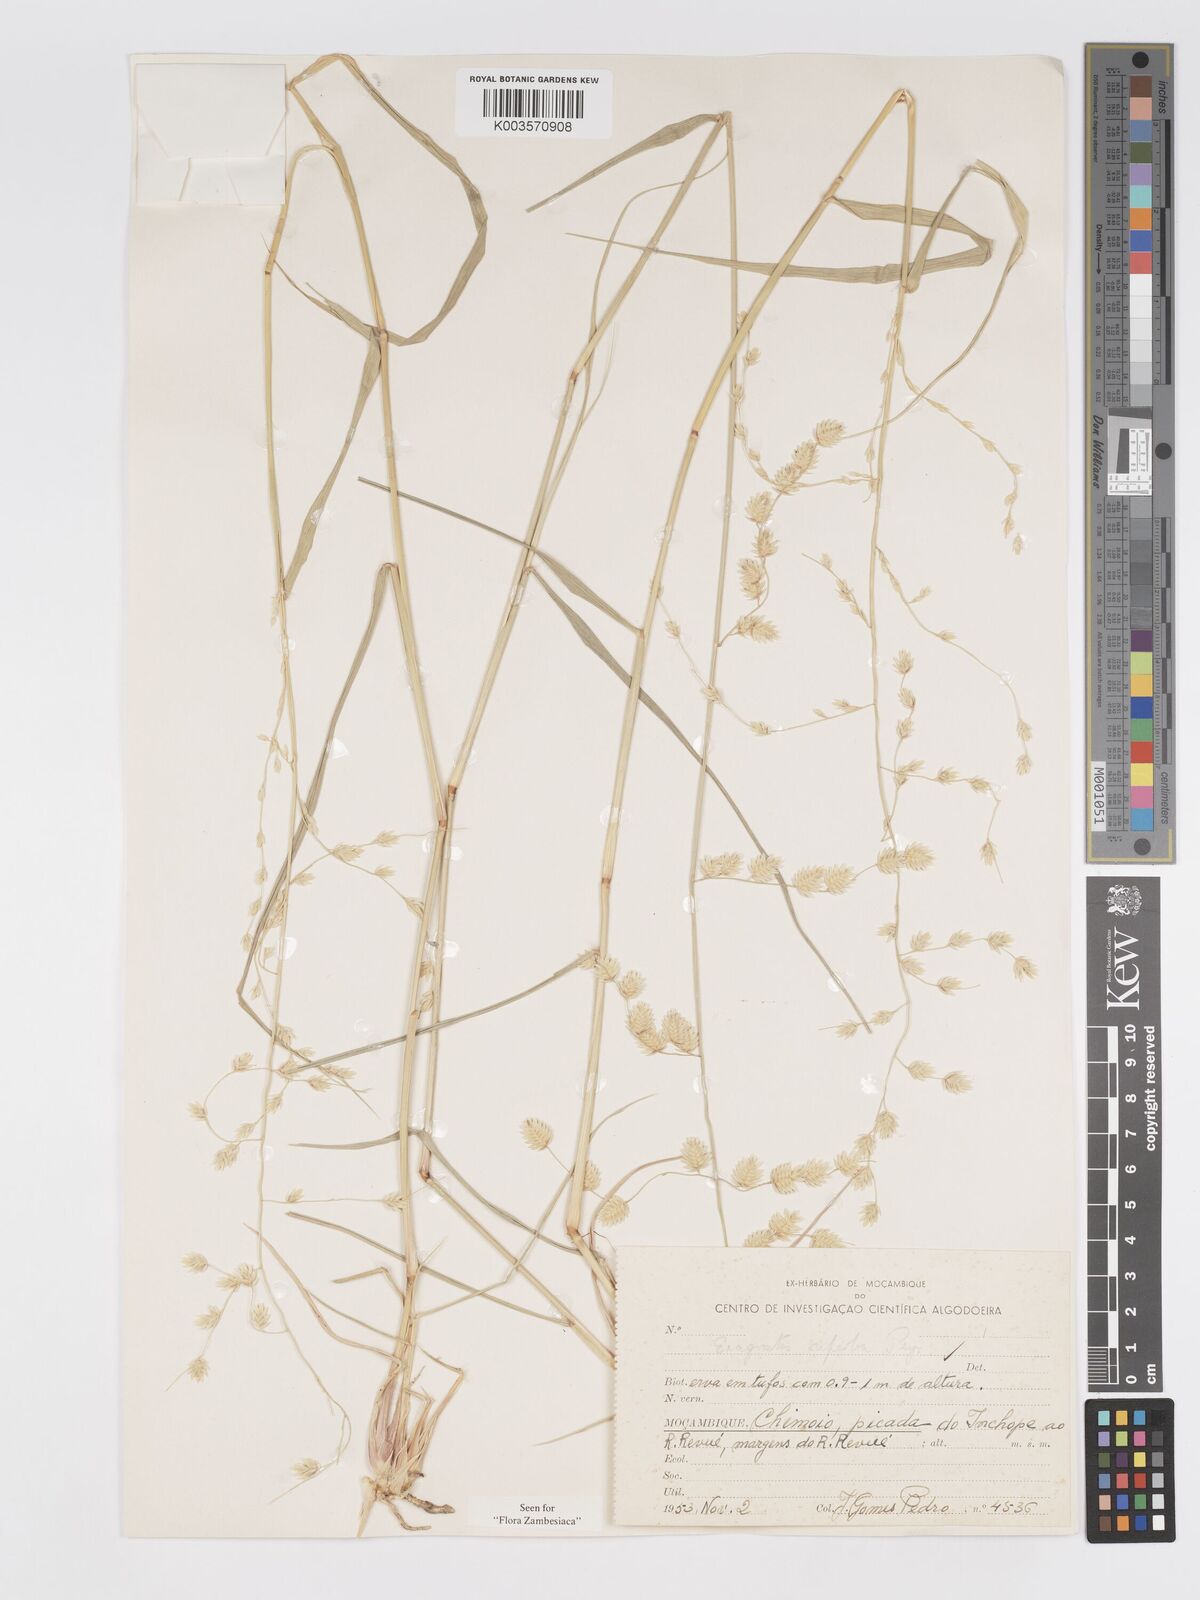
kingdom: Plantae
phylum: Tracheophyta
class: Liliopsida
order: Poales
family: Poaceae
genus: Eragrostis
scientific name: Eragrostis superba
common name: Wilman lovegrass
